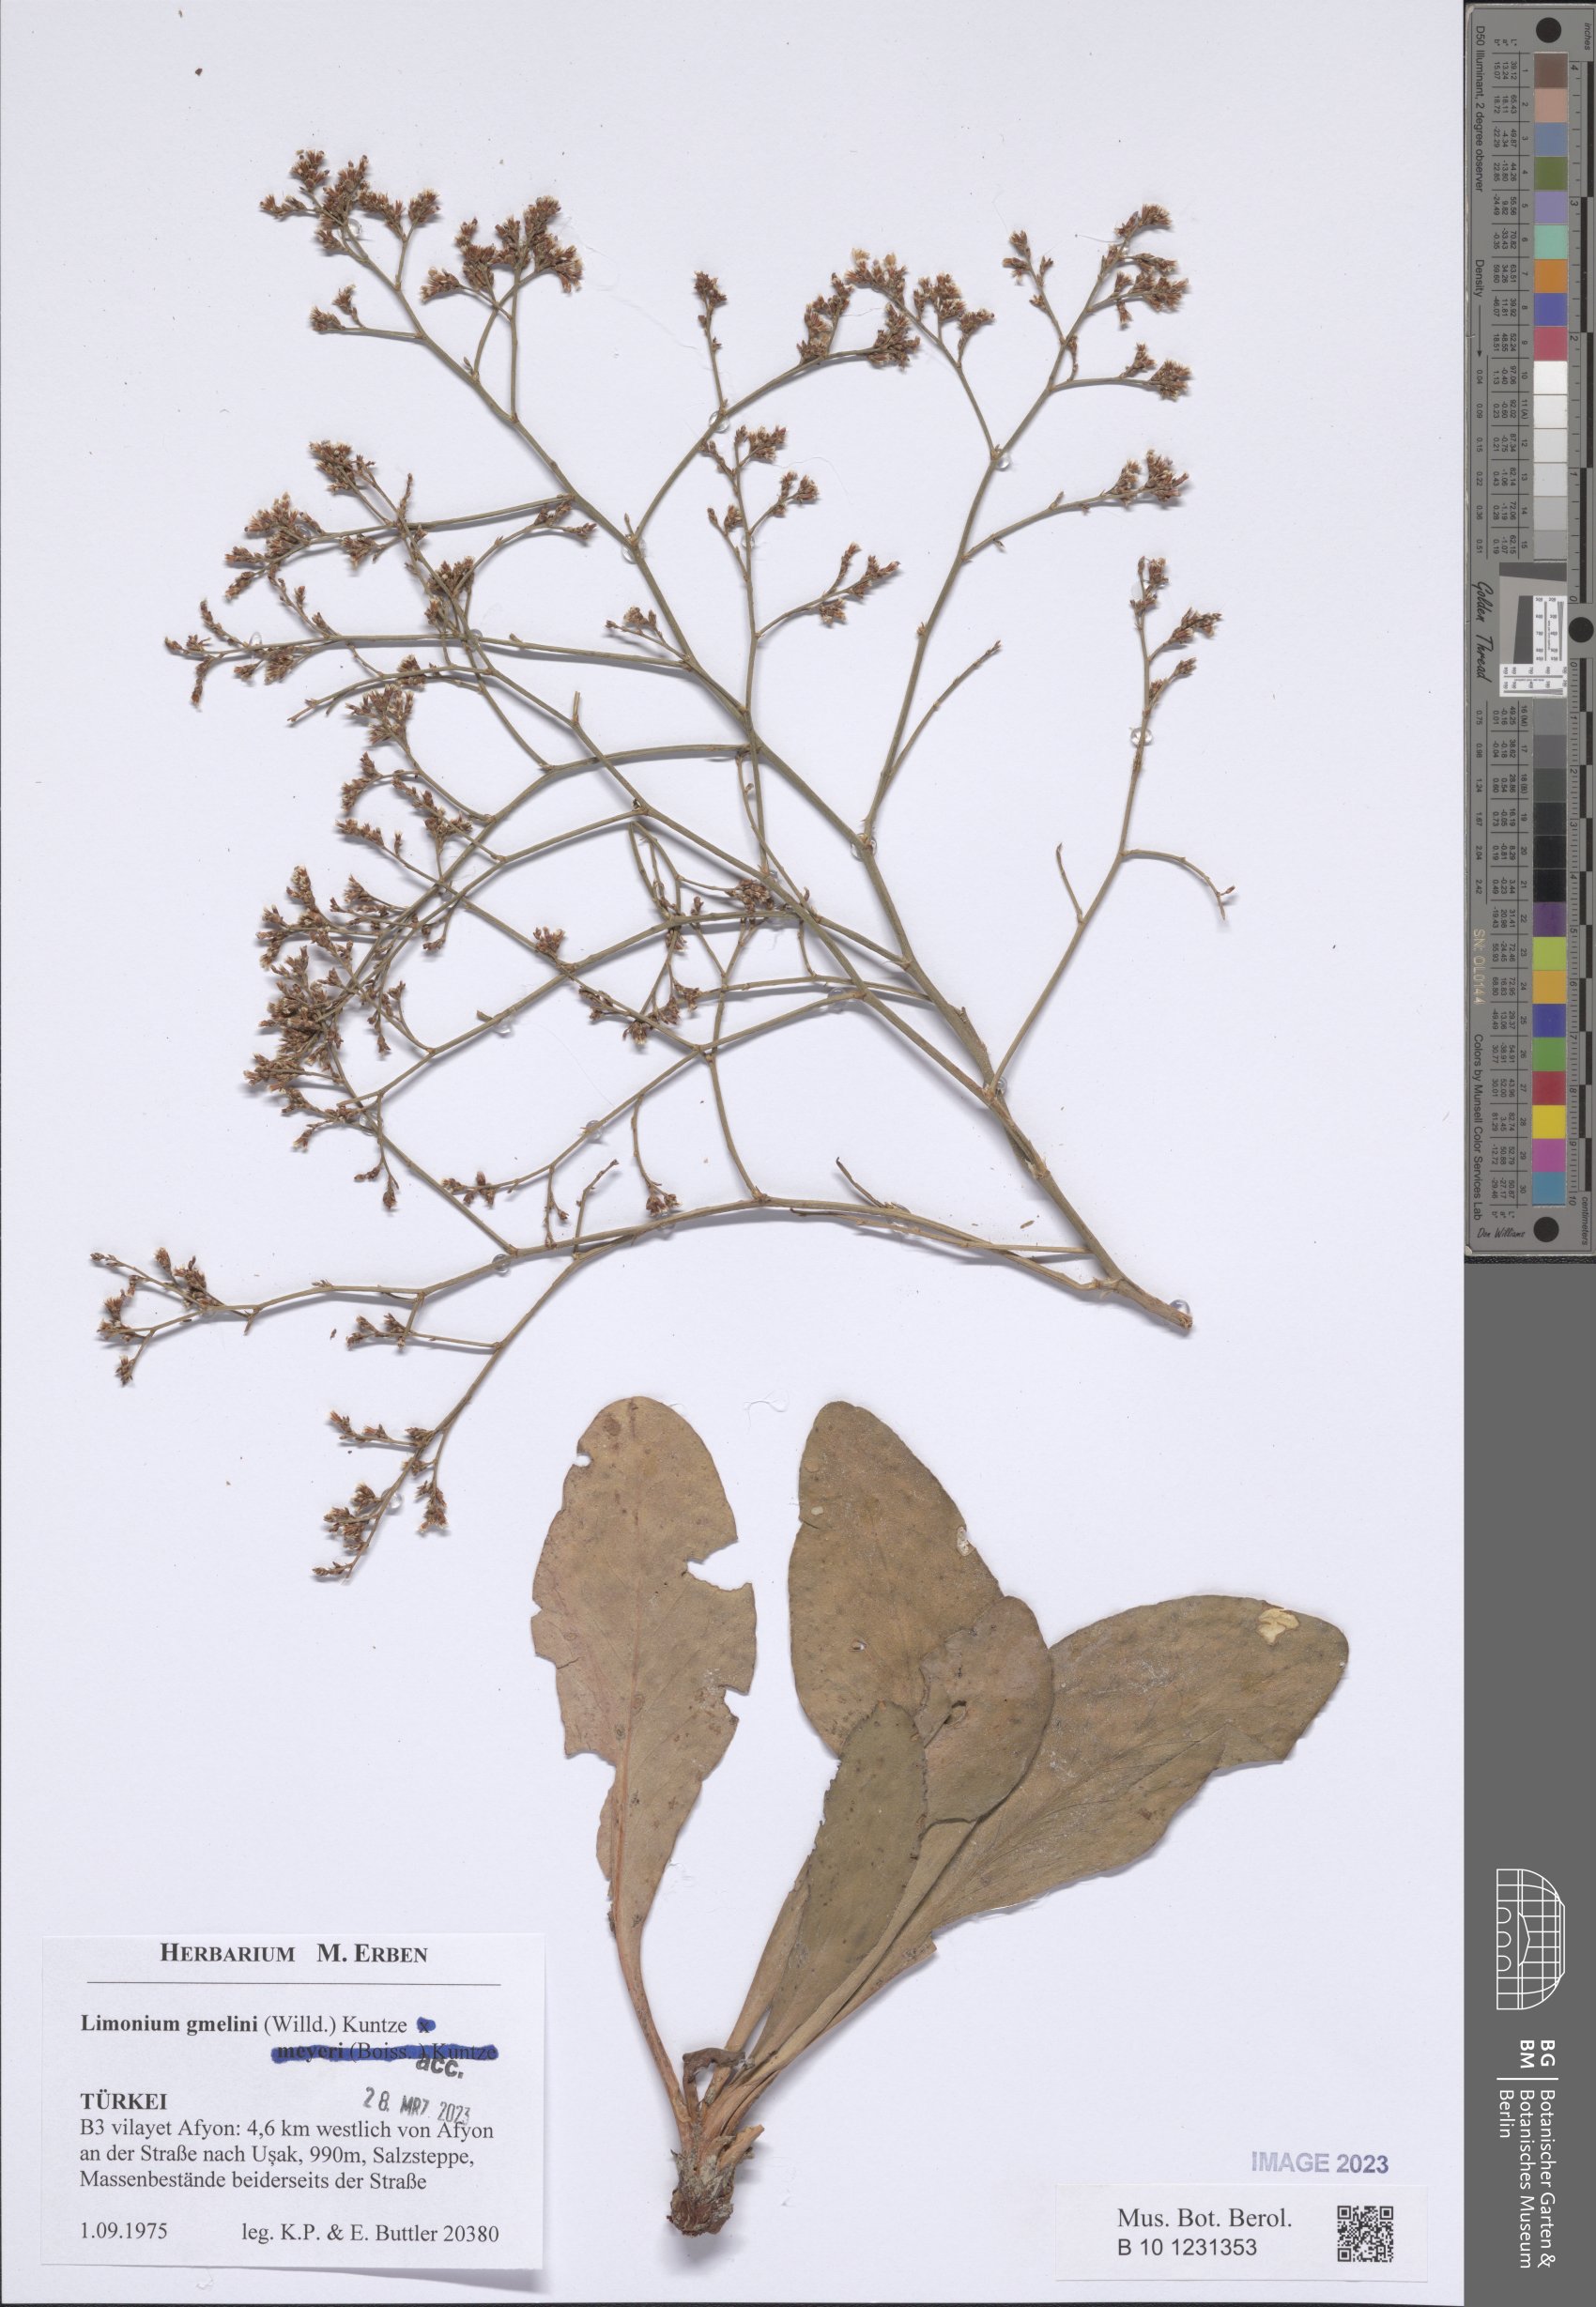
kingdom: Plantae
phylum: Tracheophyta
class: Magnoliopsida
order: Caryophyllales
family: Plumbaginaceae
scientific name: Plumbaginaceae
